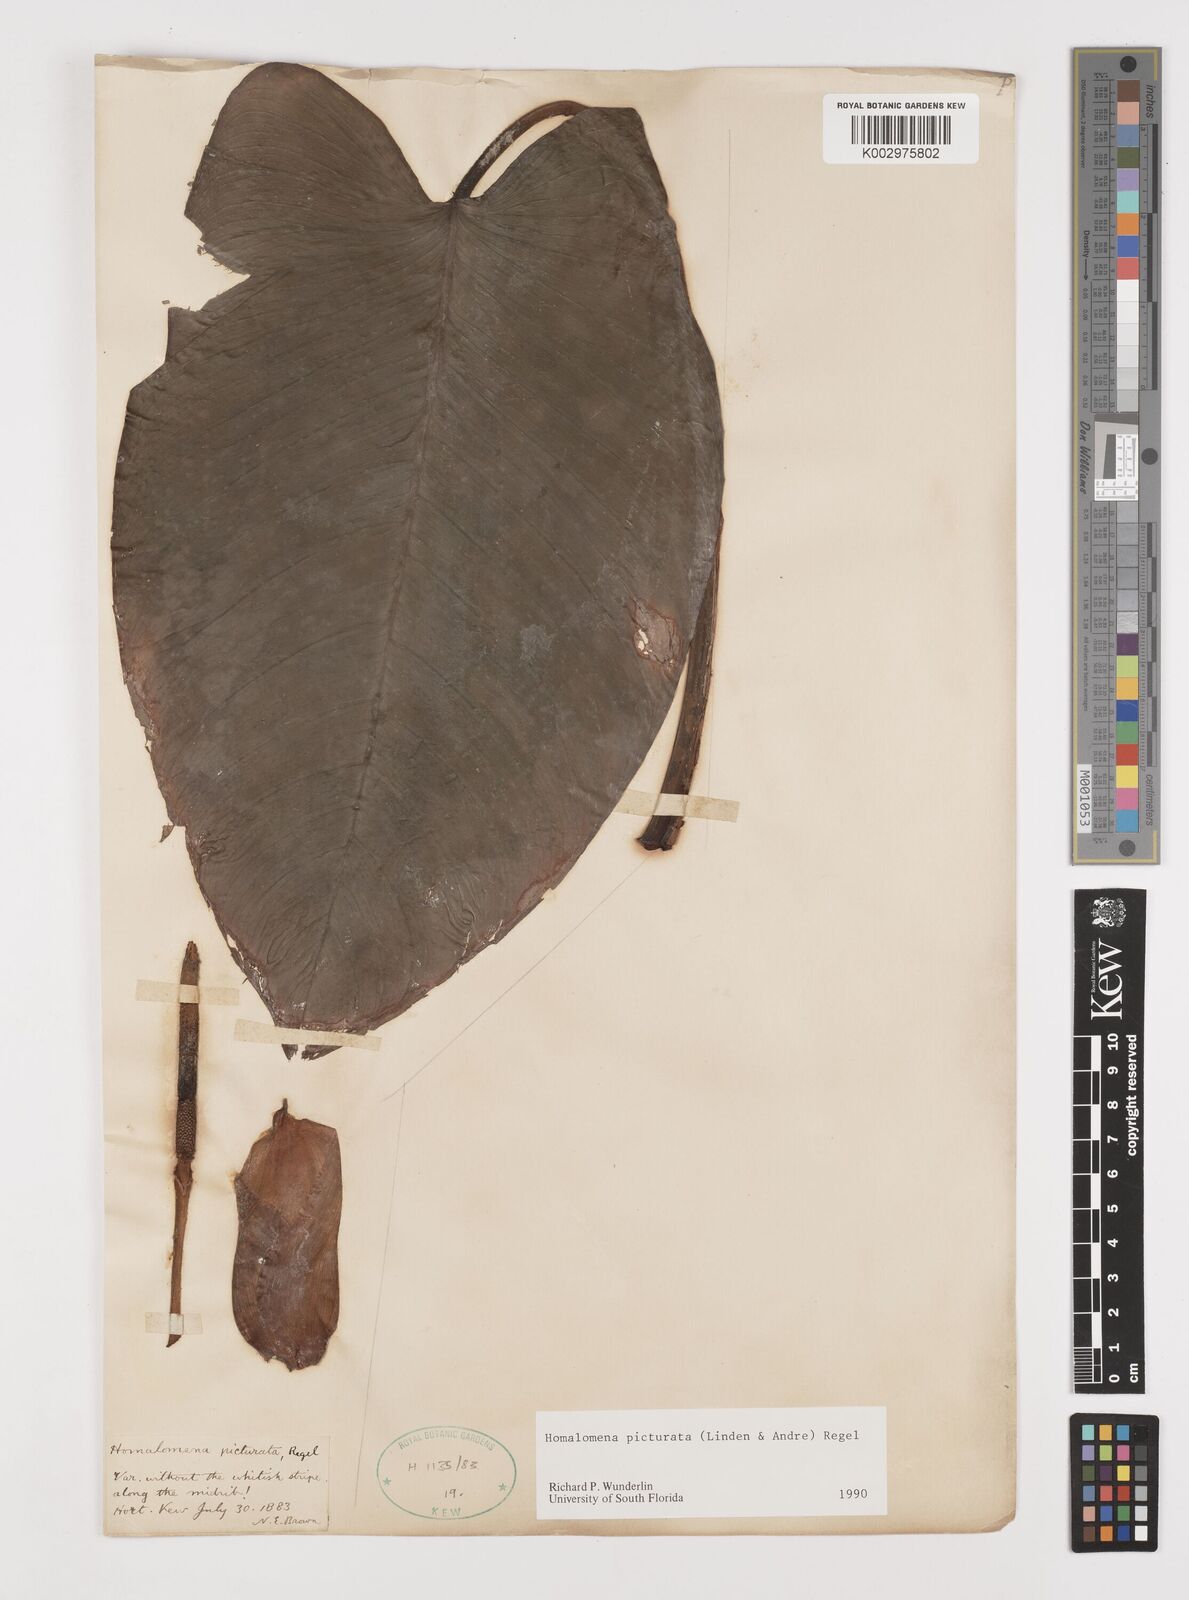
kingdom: Plantae
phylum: Tracheophyta
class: Liliopsida
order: Alismatales
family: Araceae
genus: Adelonema
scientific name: Adelonema picturatum
